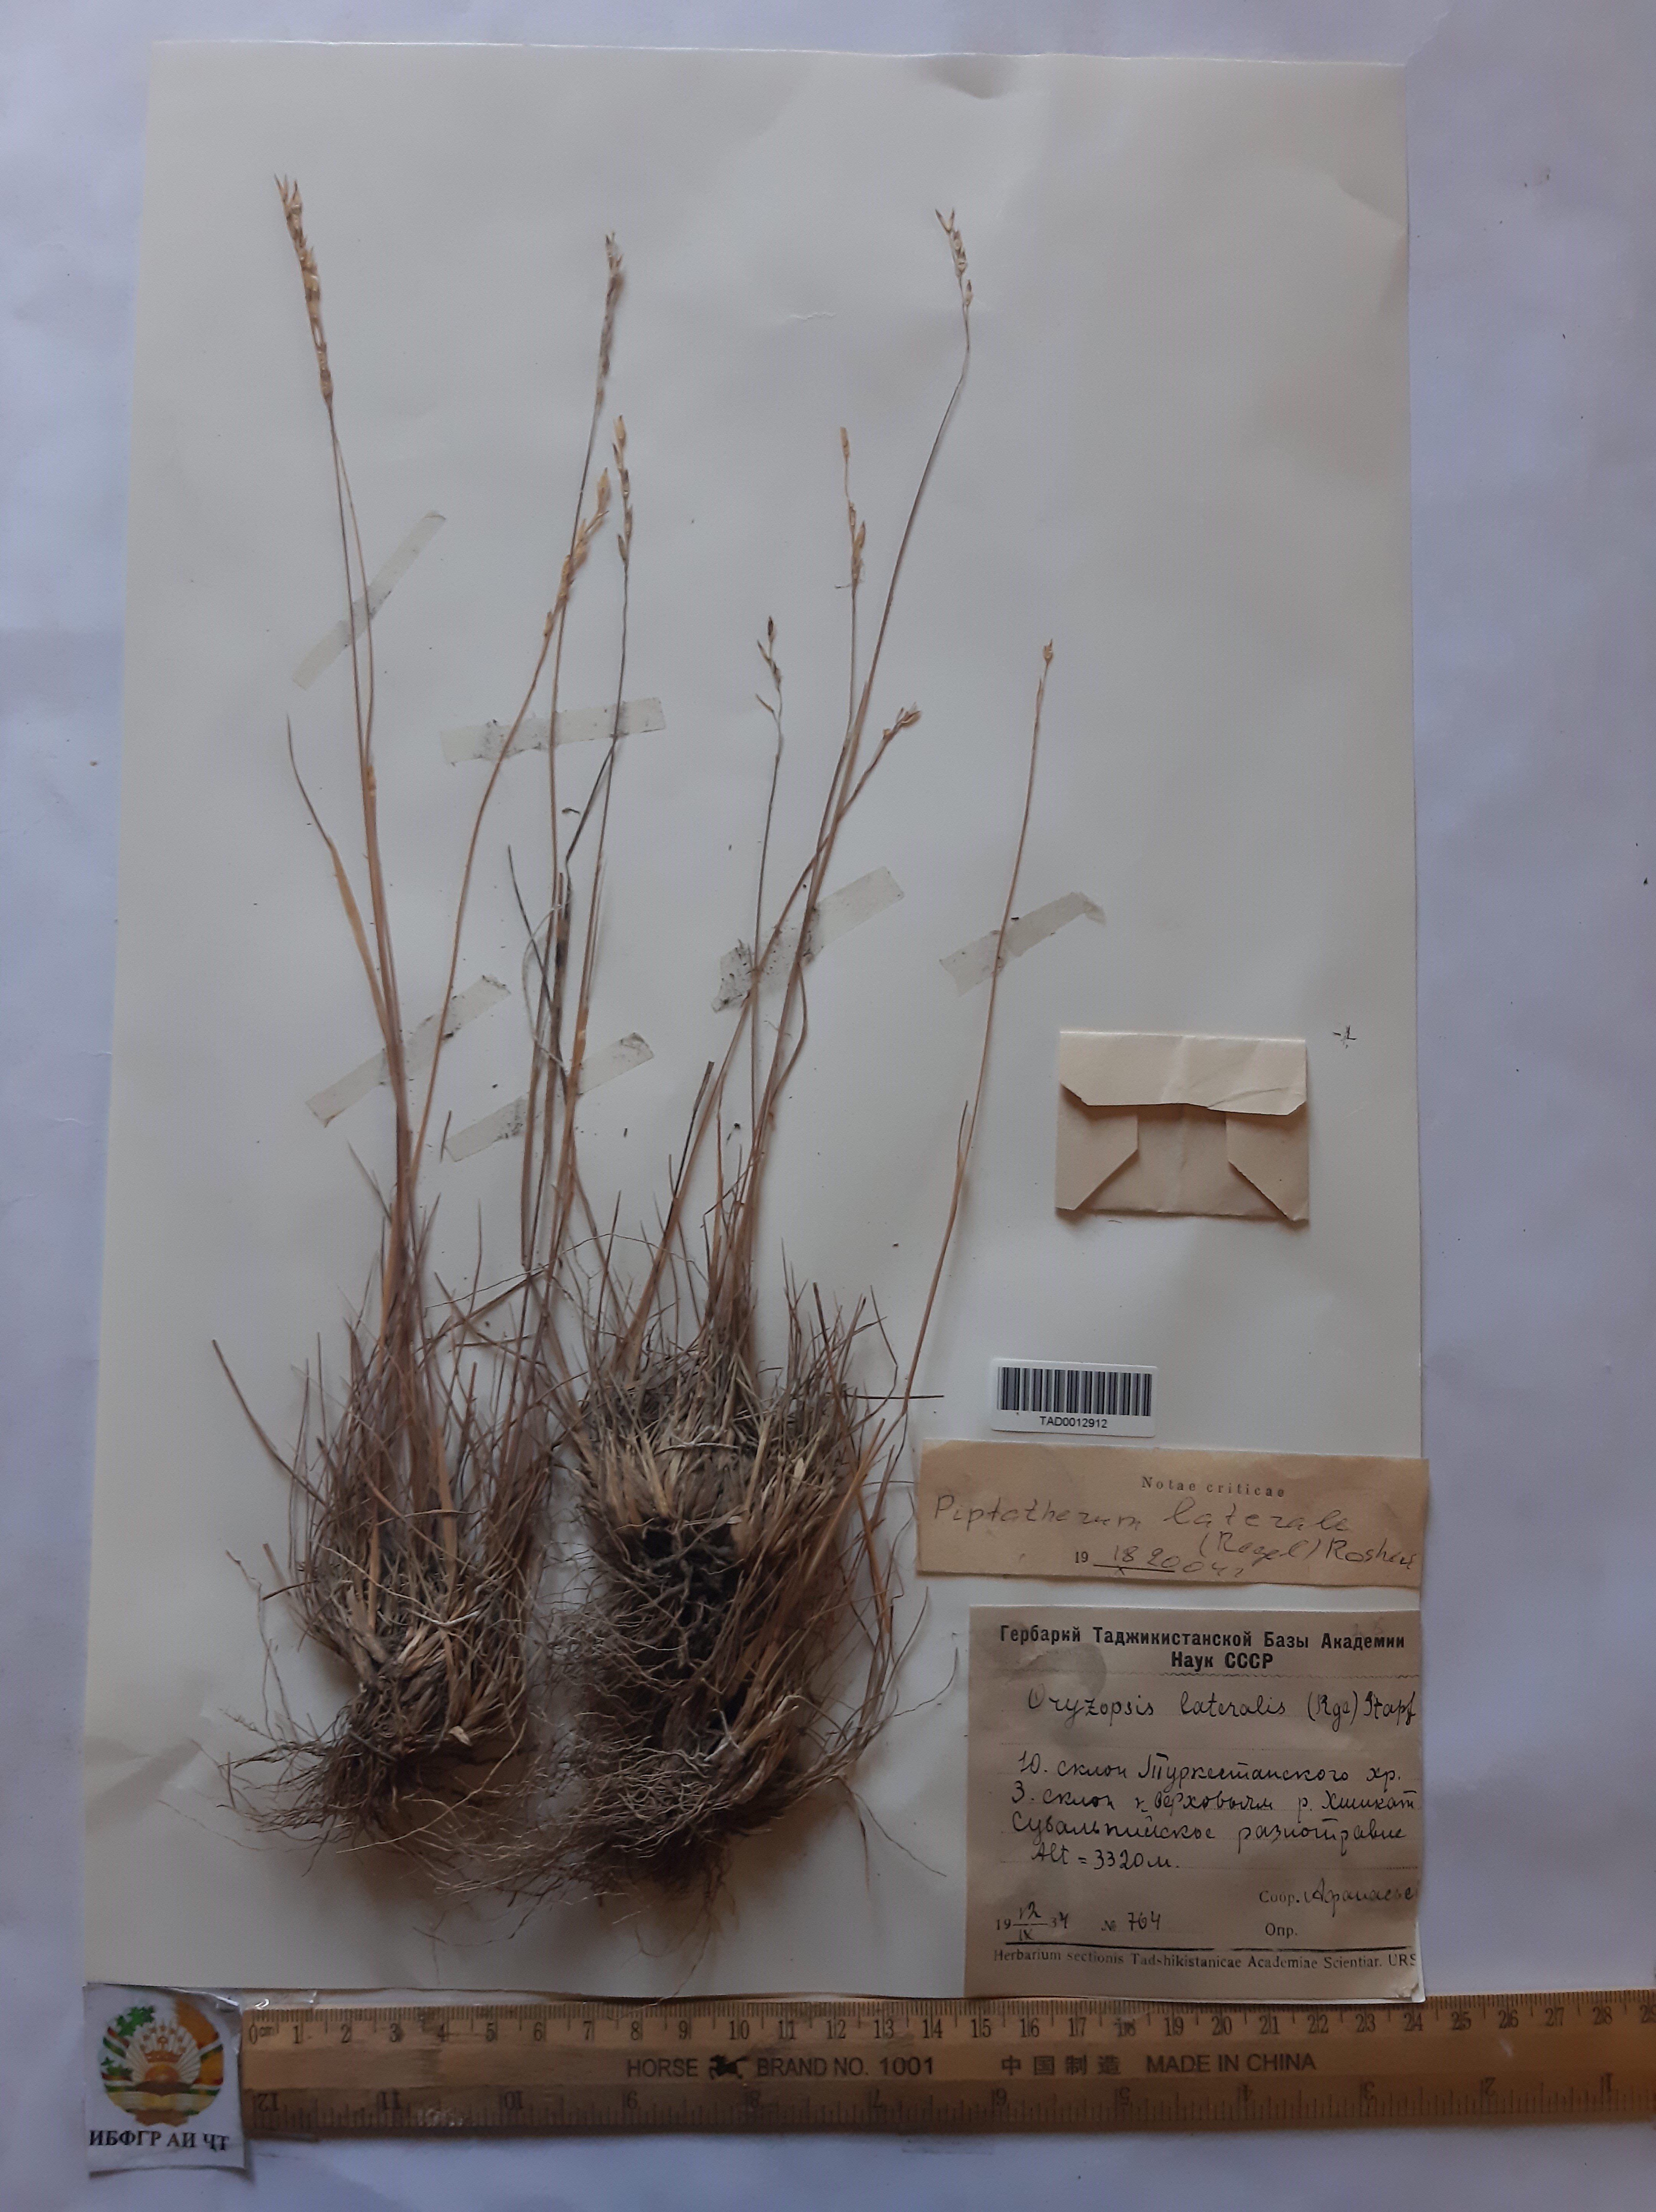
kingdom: Plantae
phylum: Tracheophyta
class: Liliopsida
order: Poales
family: Poaceae
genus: Piptatherum
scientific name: Piptatherum laterale
